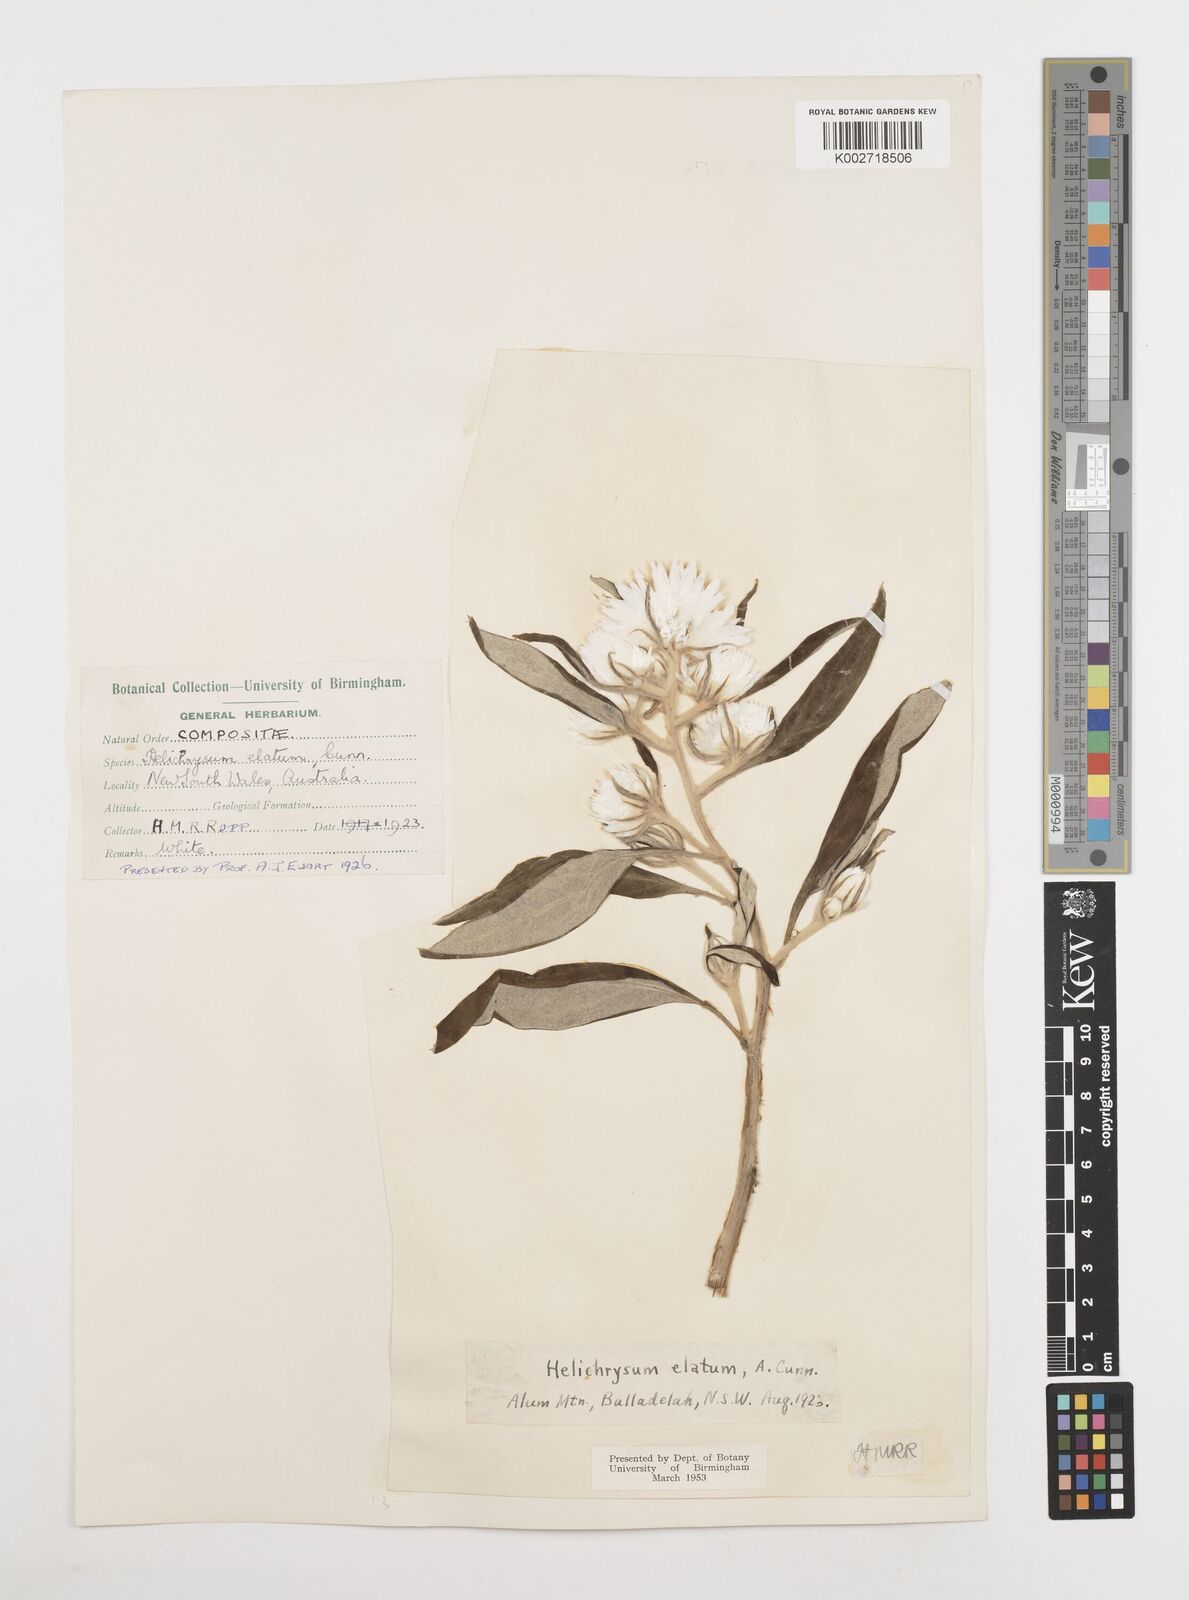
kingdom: Plantae
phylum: Tracheophyta
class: Magnoliopsida
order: Asterales
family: Asteraceae
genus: Leucozoma
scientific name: Leucozoma elatum
